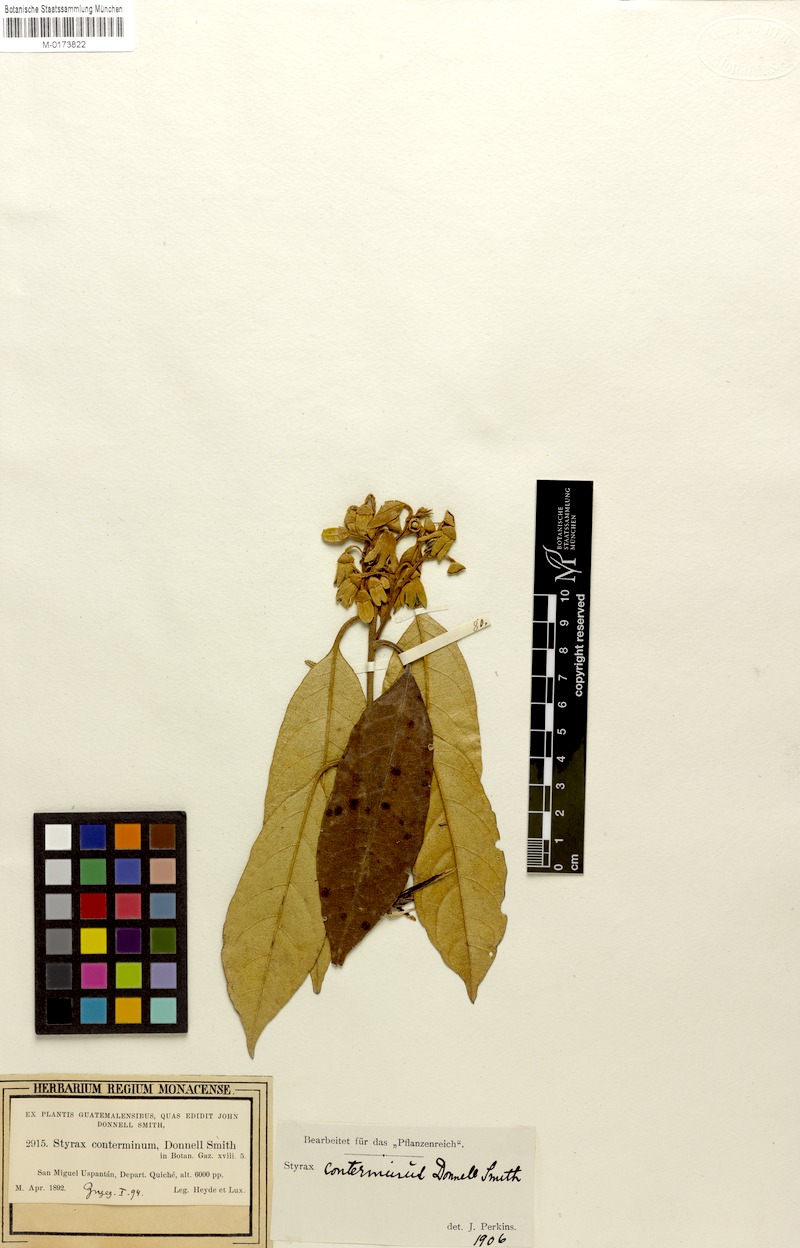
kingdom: Plantae
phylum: Tracheophyta
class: Magnoliopsida
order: Ericales
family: Styracaceae
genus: Styrax
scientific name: Styrax conterminus
